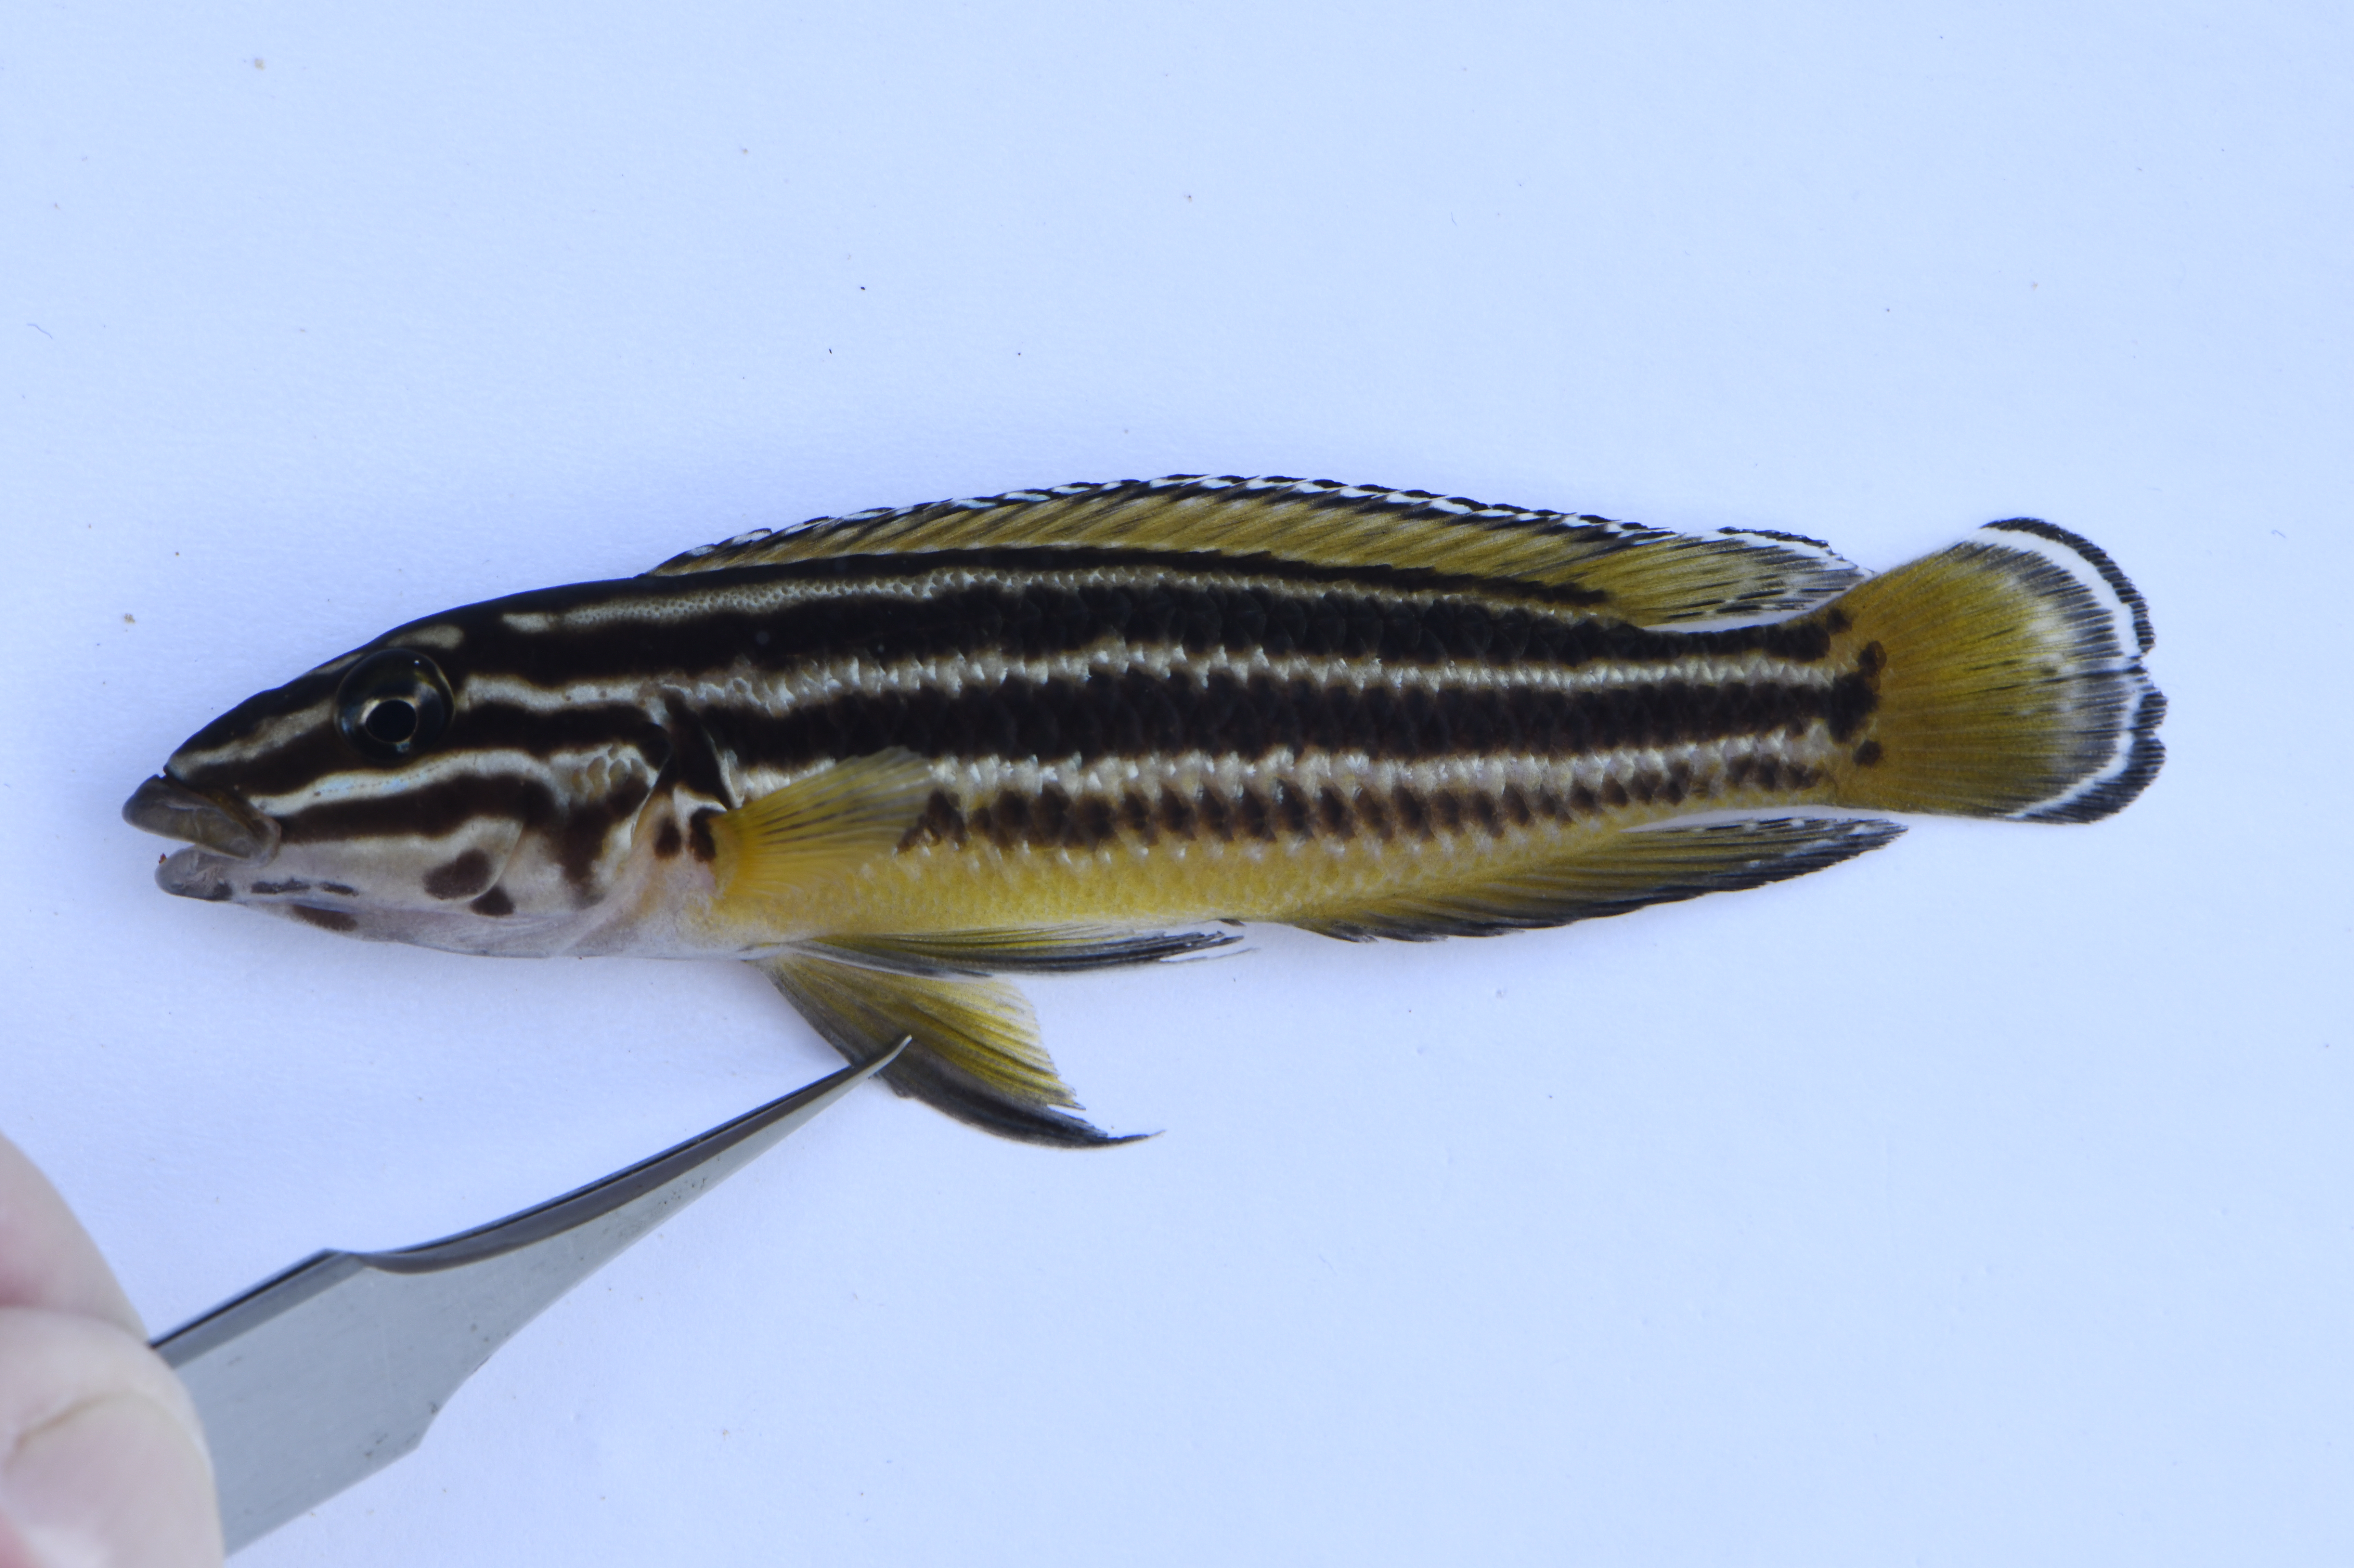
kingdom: Animalia
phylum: Chordata
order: Perciformes
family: Cichlidae
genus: Julidochromis
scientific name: Julidochromis regani
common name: Convict julie
